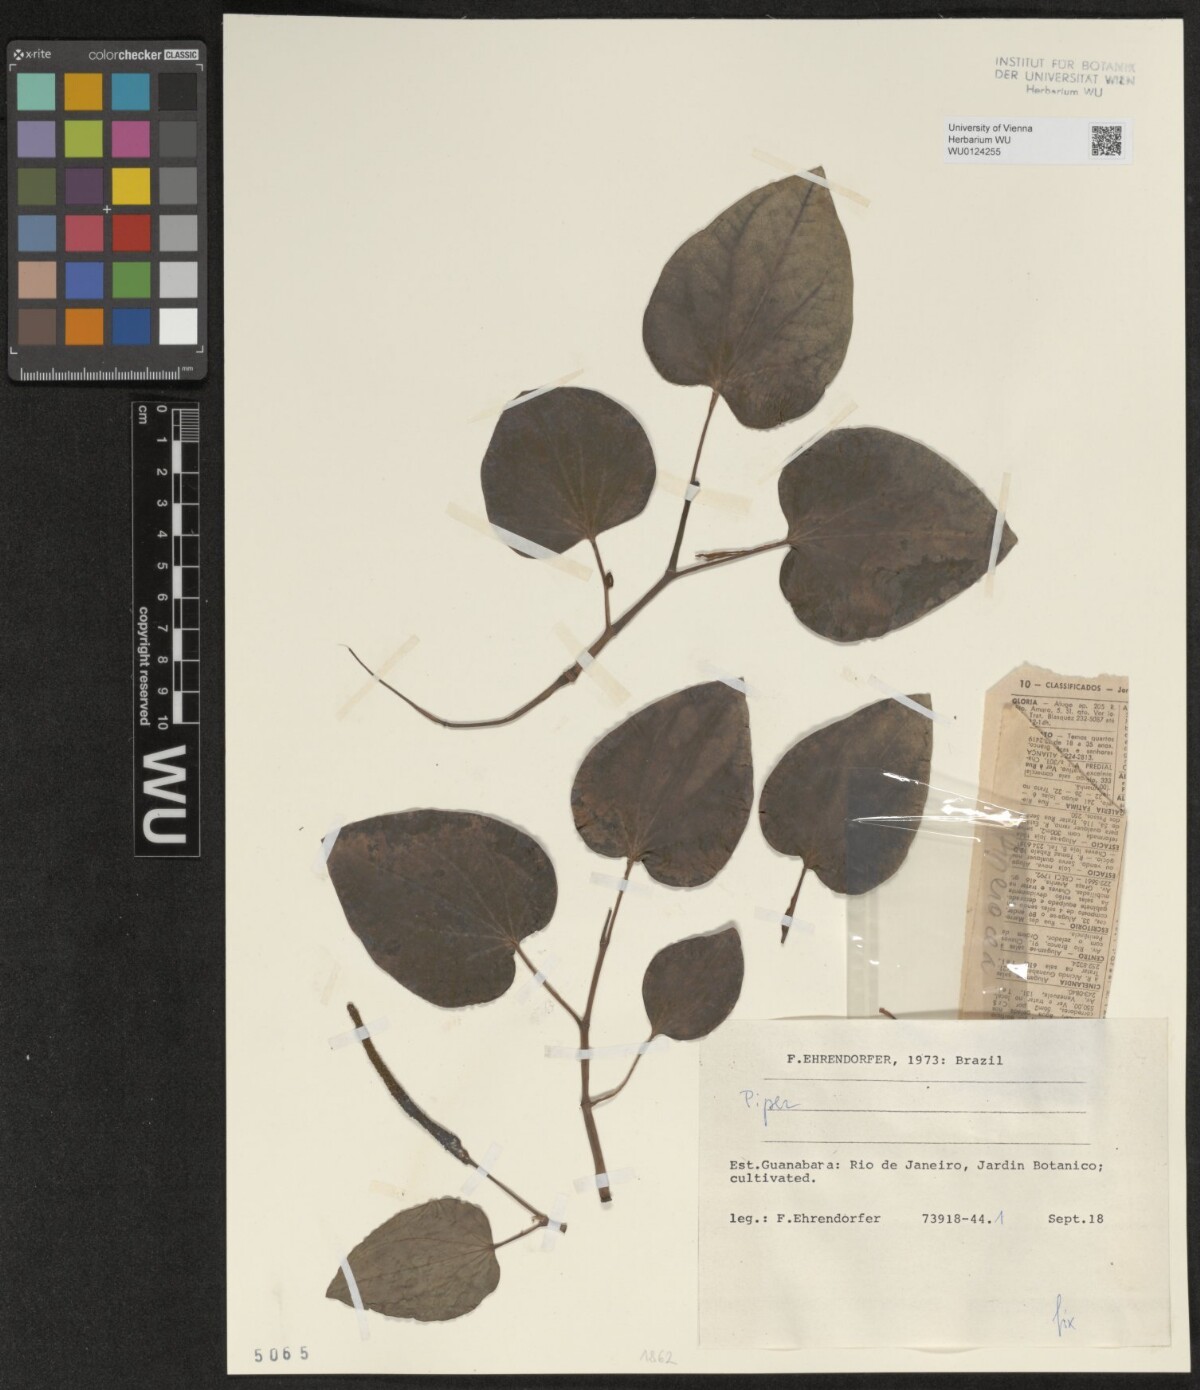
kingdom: Plantae
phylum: Tracheophyta
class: Magnoliopsida
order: Piperales
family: Piperaceae
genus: Piper
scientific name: Piper
